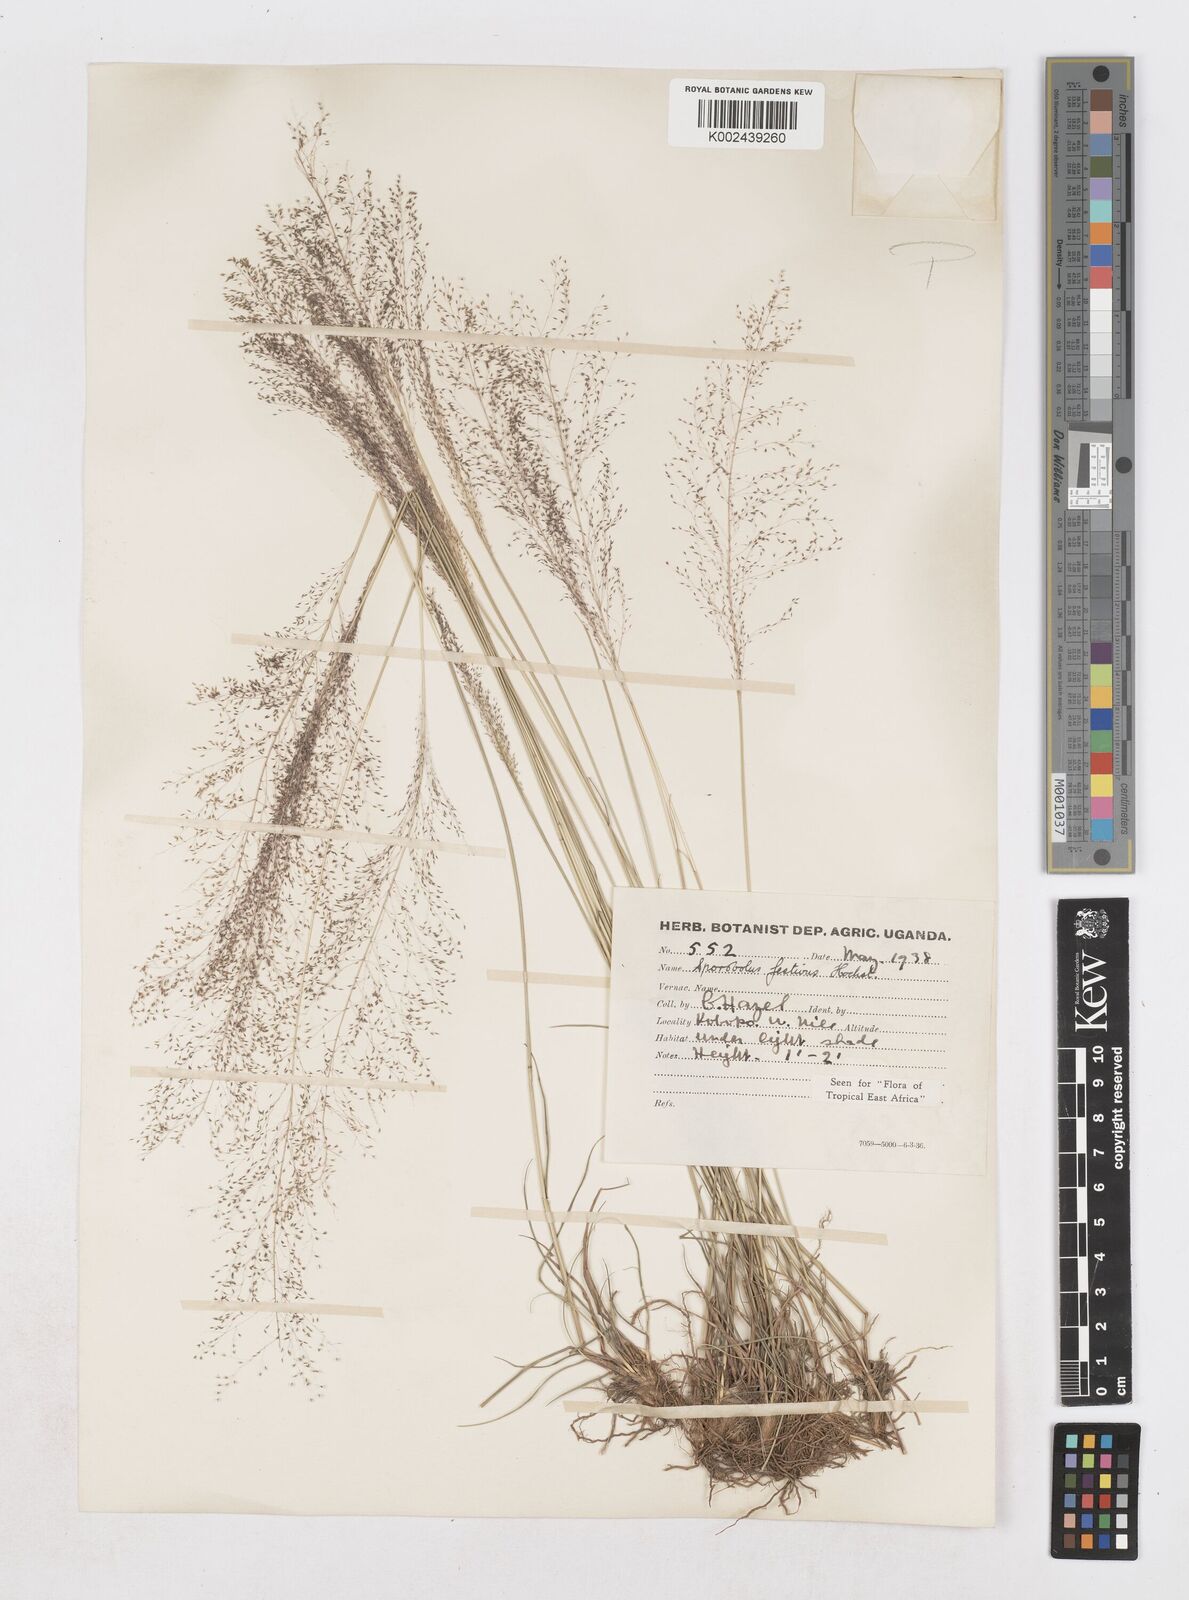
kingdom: Plantae
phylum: Tracheophyta
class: Liliopsida
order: Poales
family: Poaceae
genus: Sporobolus
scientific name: Sporobolus festivus
